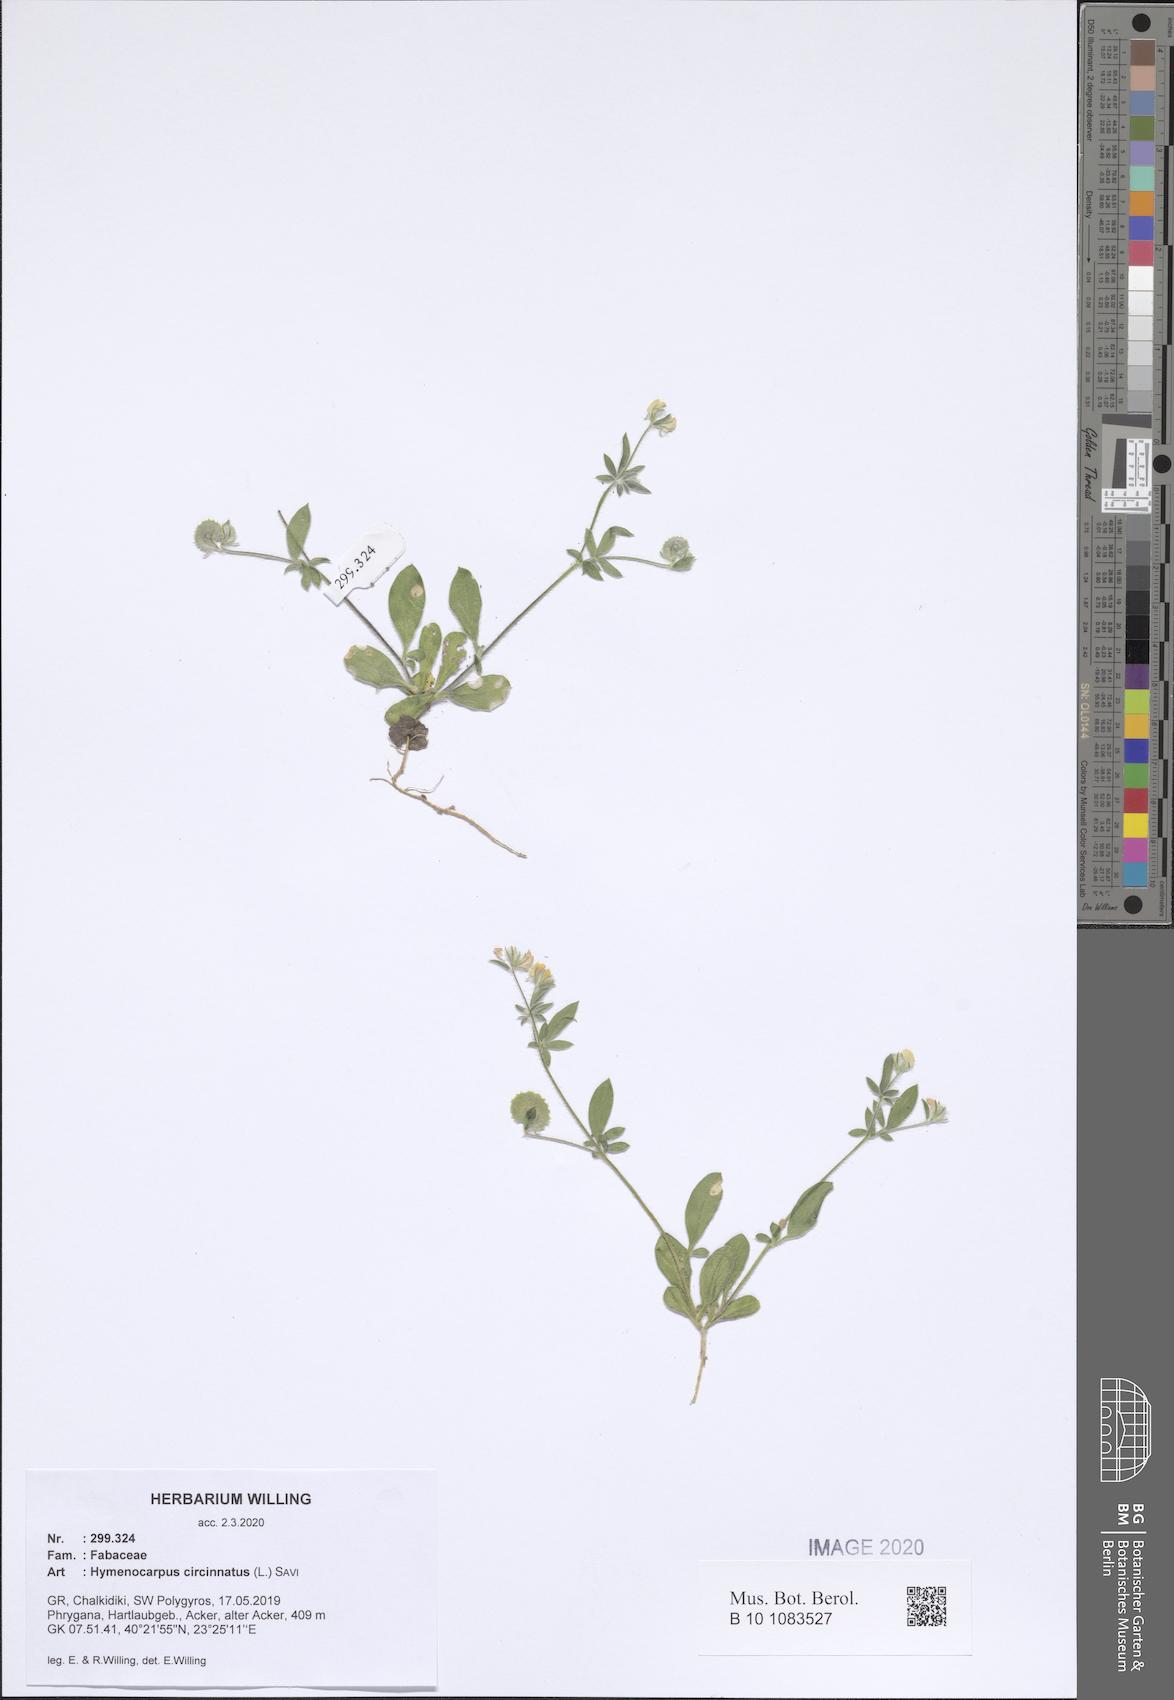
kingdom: Plantae
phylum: Tracheophyta
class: Magnoliopsida
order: Fabales
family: Fabaceae
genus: Anthyllis
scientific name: Anthyllis circinnata
